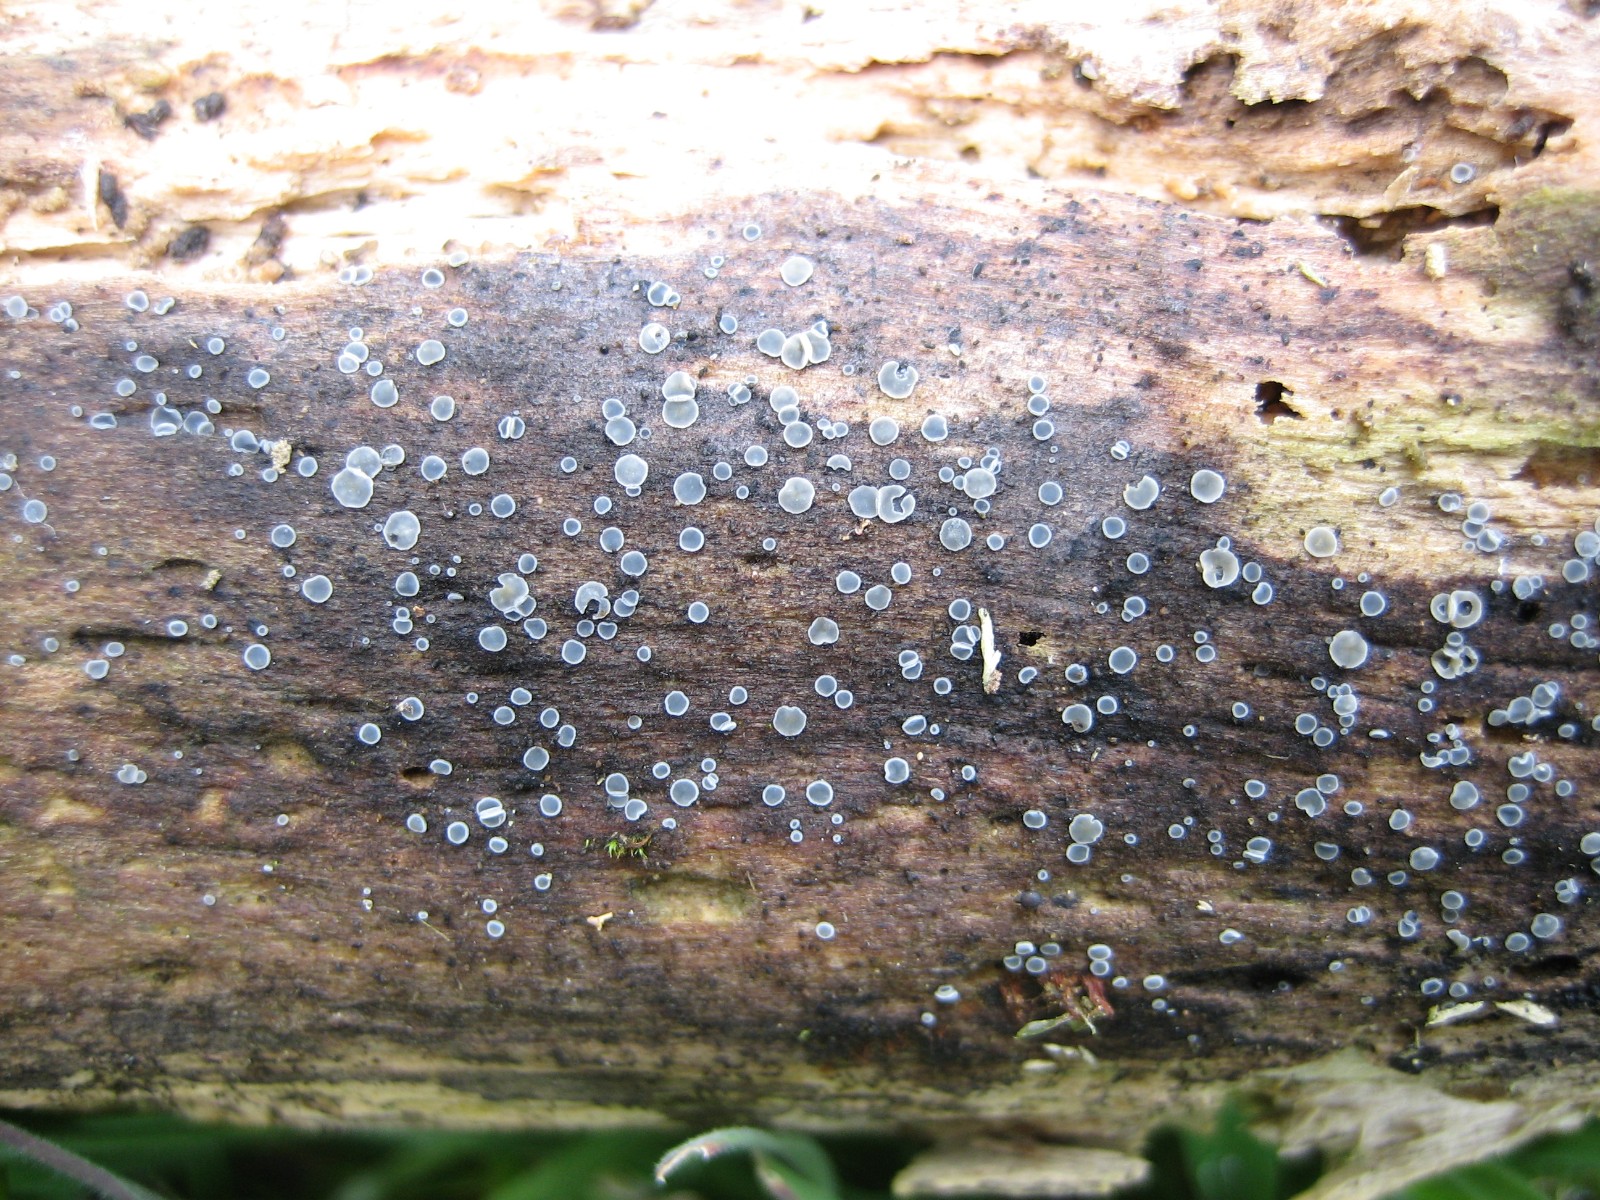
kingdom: Fungi
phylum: Ascomycota
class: Leotiomycetes
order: Helotiales
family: Mollisiaceae
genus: Mollisia
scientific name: Mollisia
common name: gråskive
